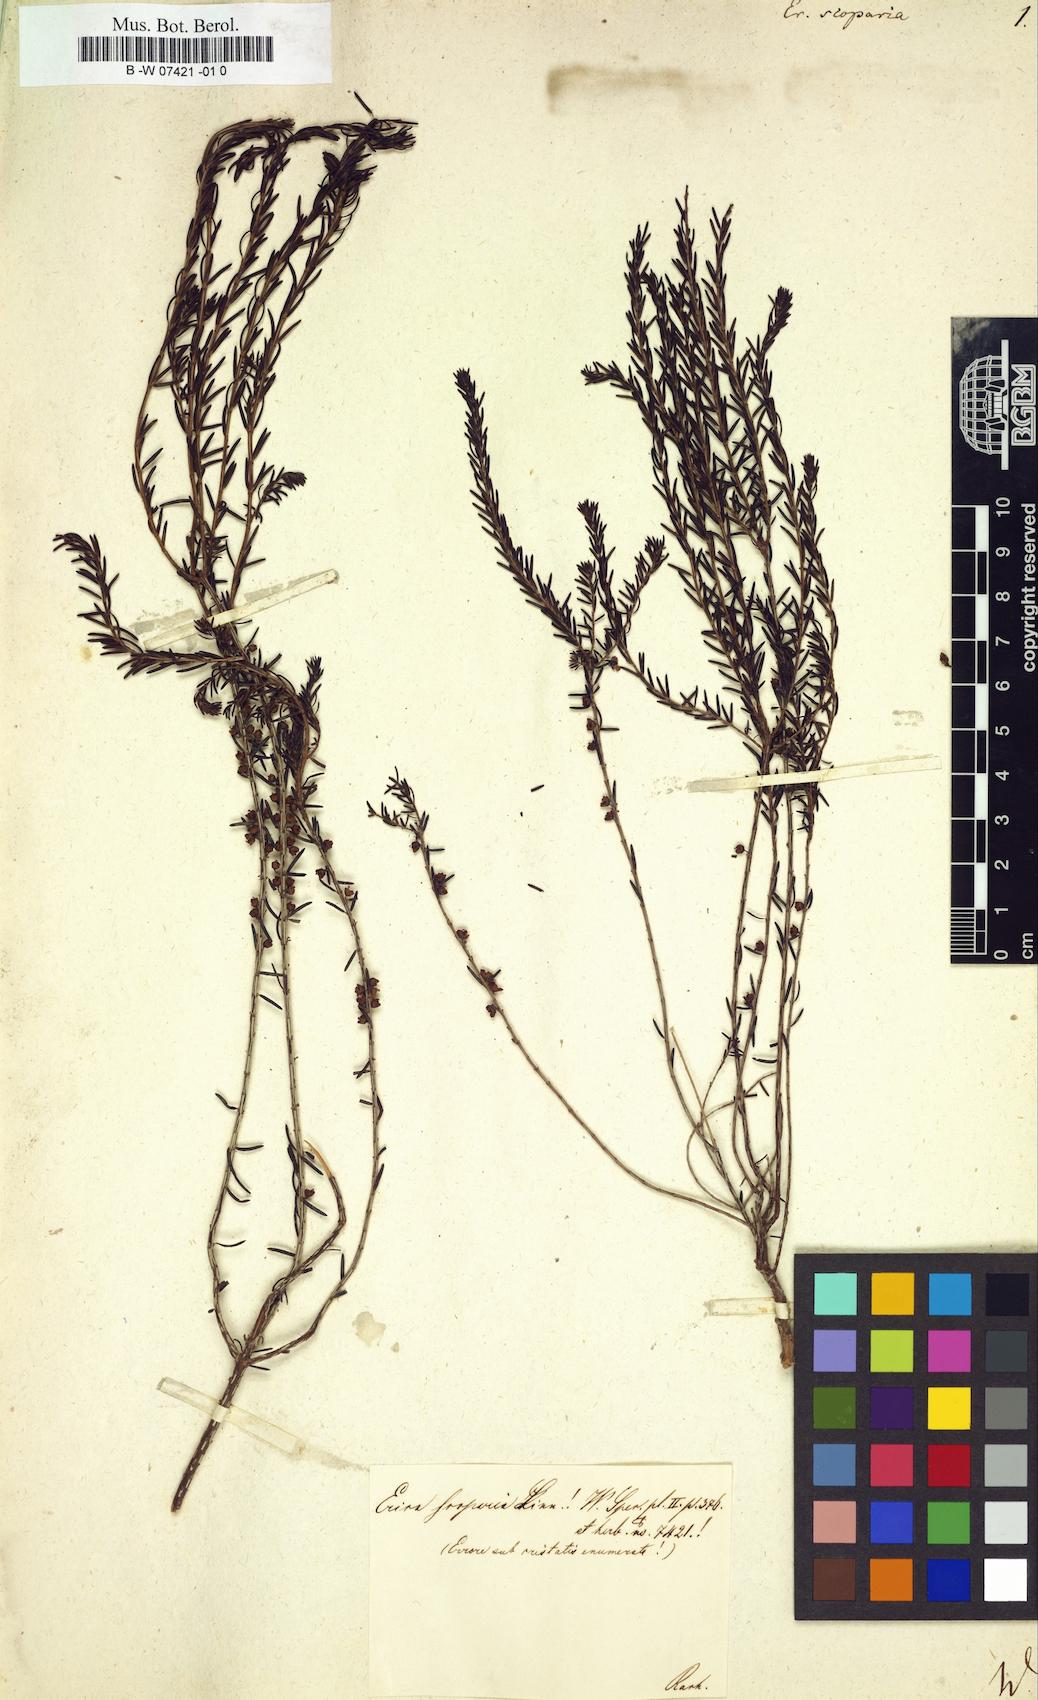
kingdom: Plantae
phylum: Tracheophyta
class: Magnoliopsida
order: Ericales
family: Ericaceae
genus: Erica
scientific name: Erica arborea
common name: Tree heath
